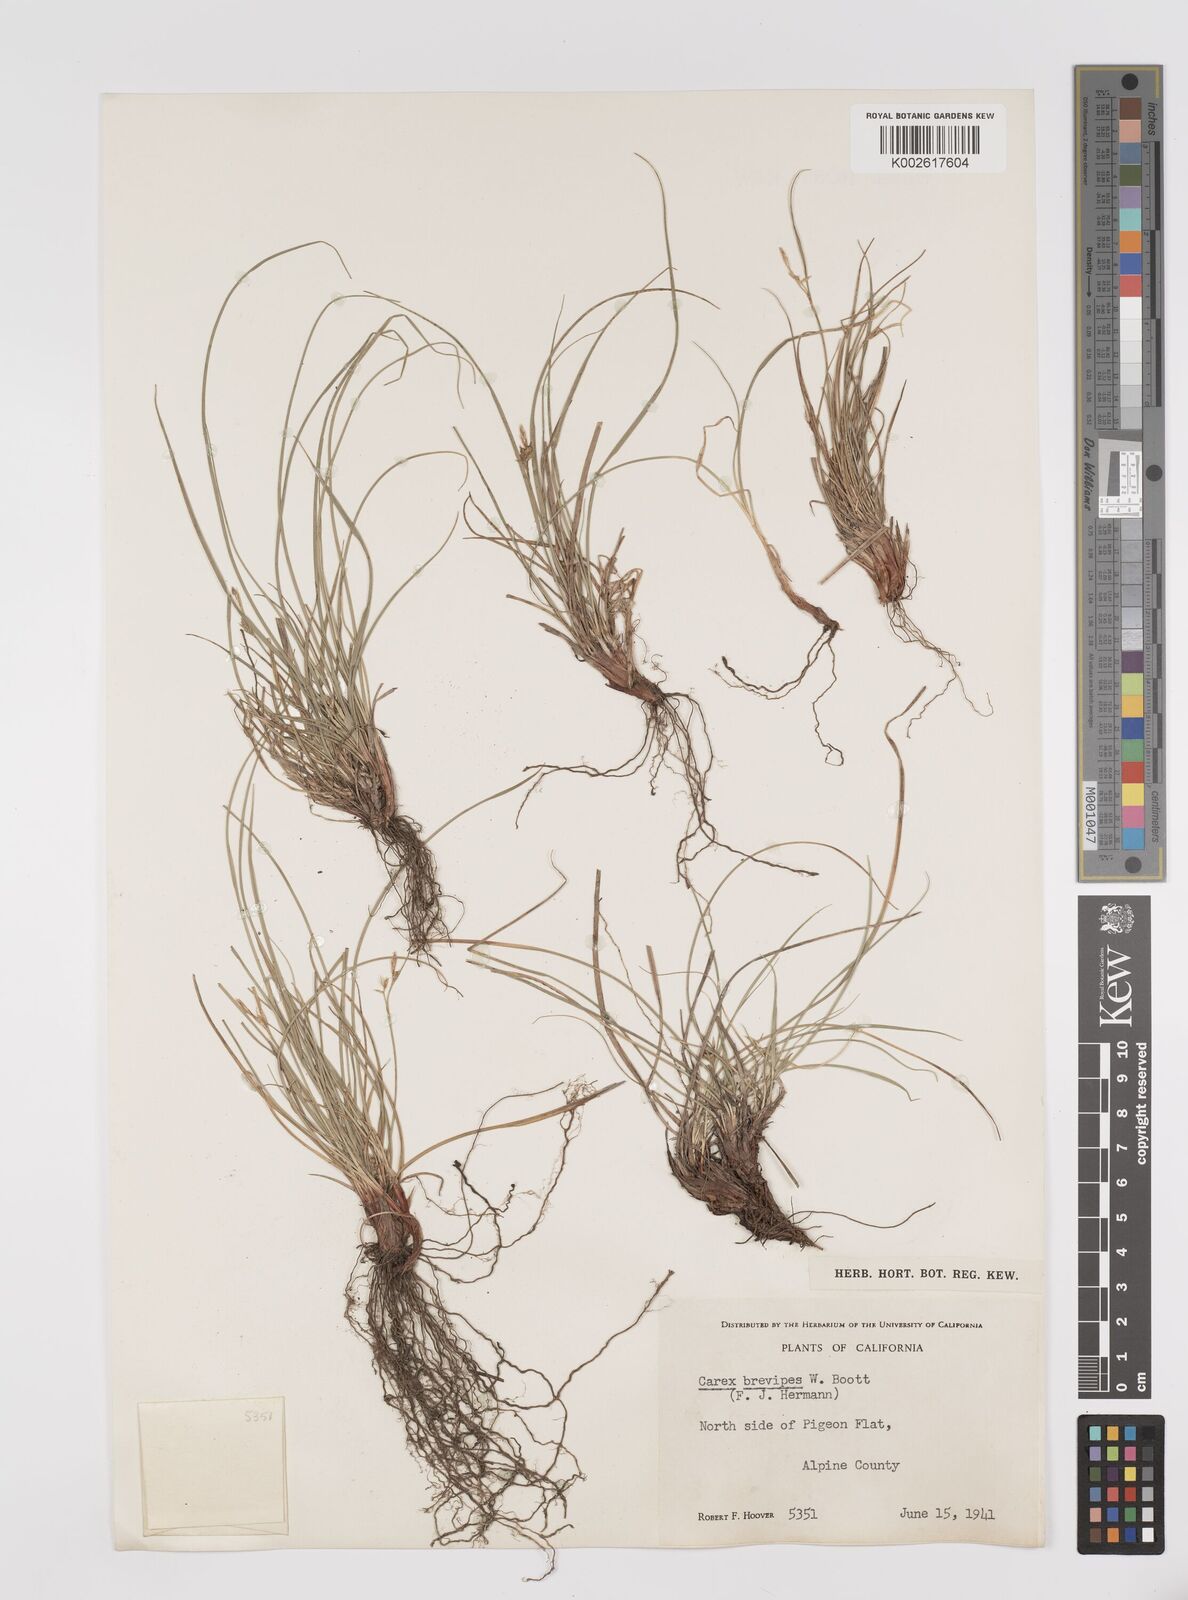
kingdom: Plantae
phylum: Tracheophyta
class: Liliopsida
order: Poales
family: Cyperaceae
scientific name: Cyperaceae
